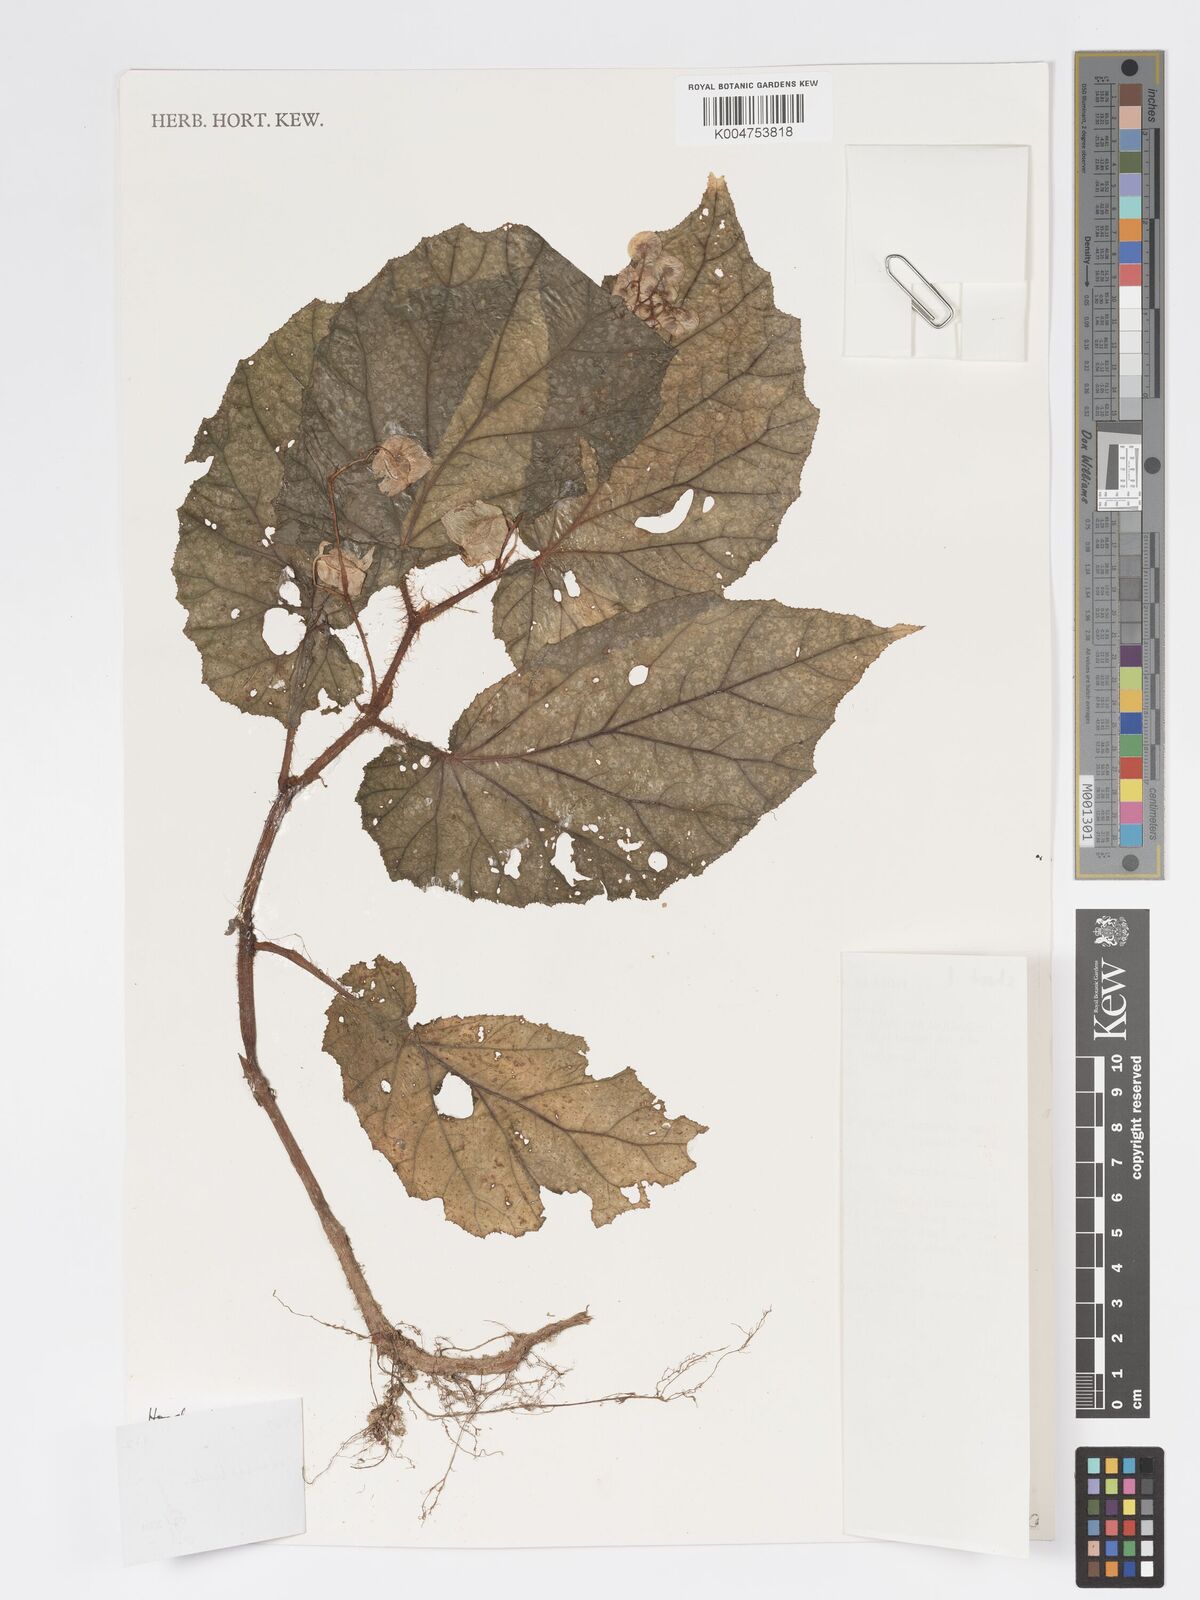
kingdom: Plantae
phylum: Tracheophyta
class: Magnoliopsida
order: Cucurbitales
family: Begoniaceae
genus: Begonia
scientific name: Begonia torricellensis
